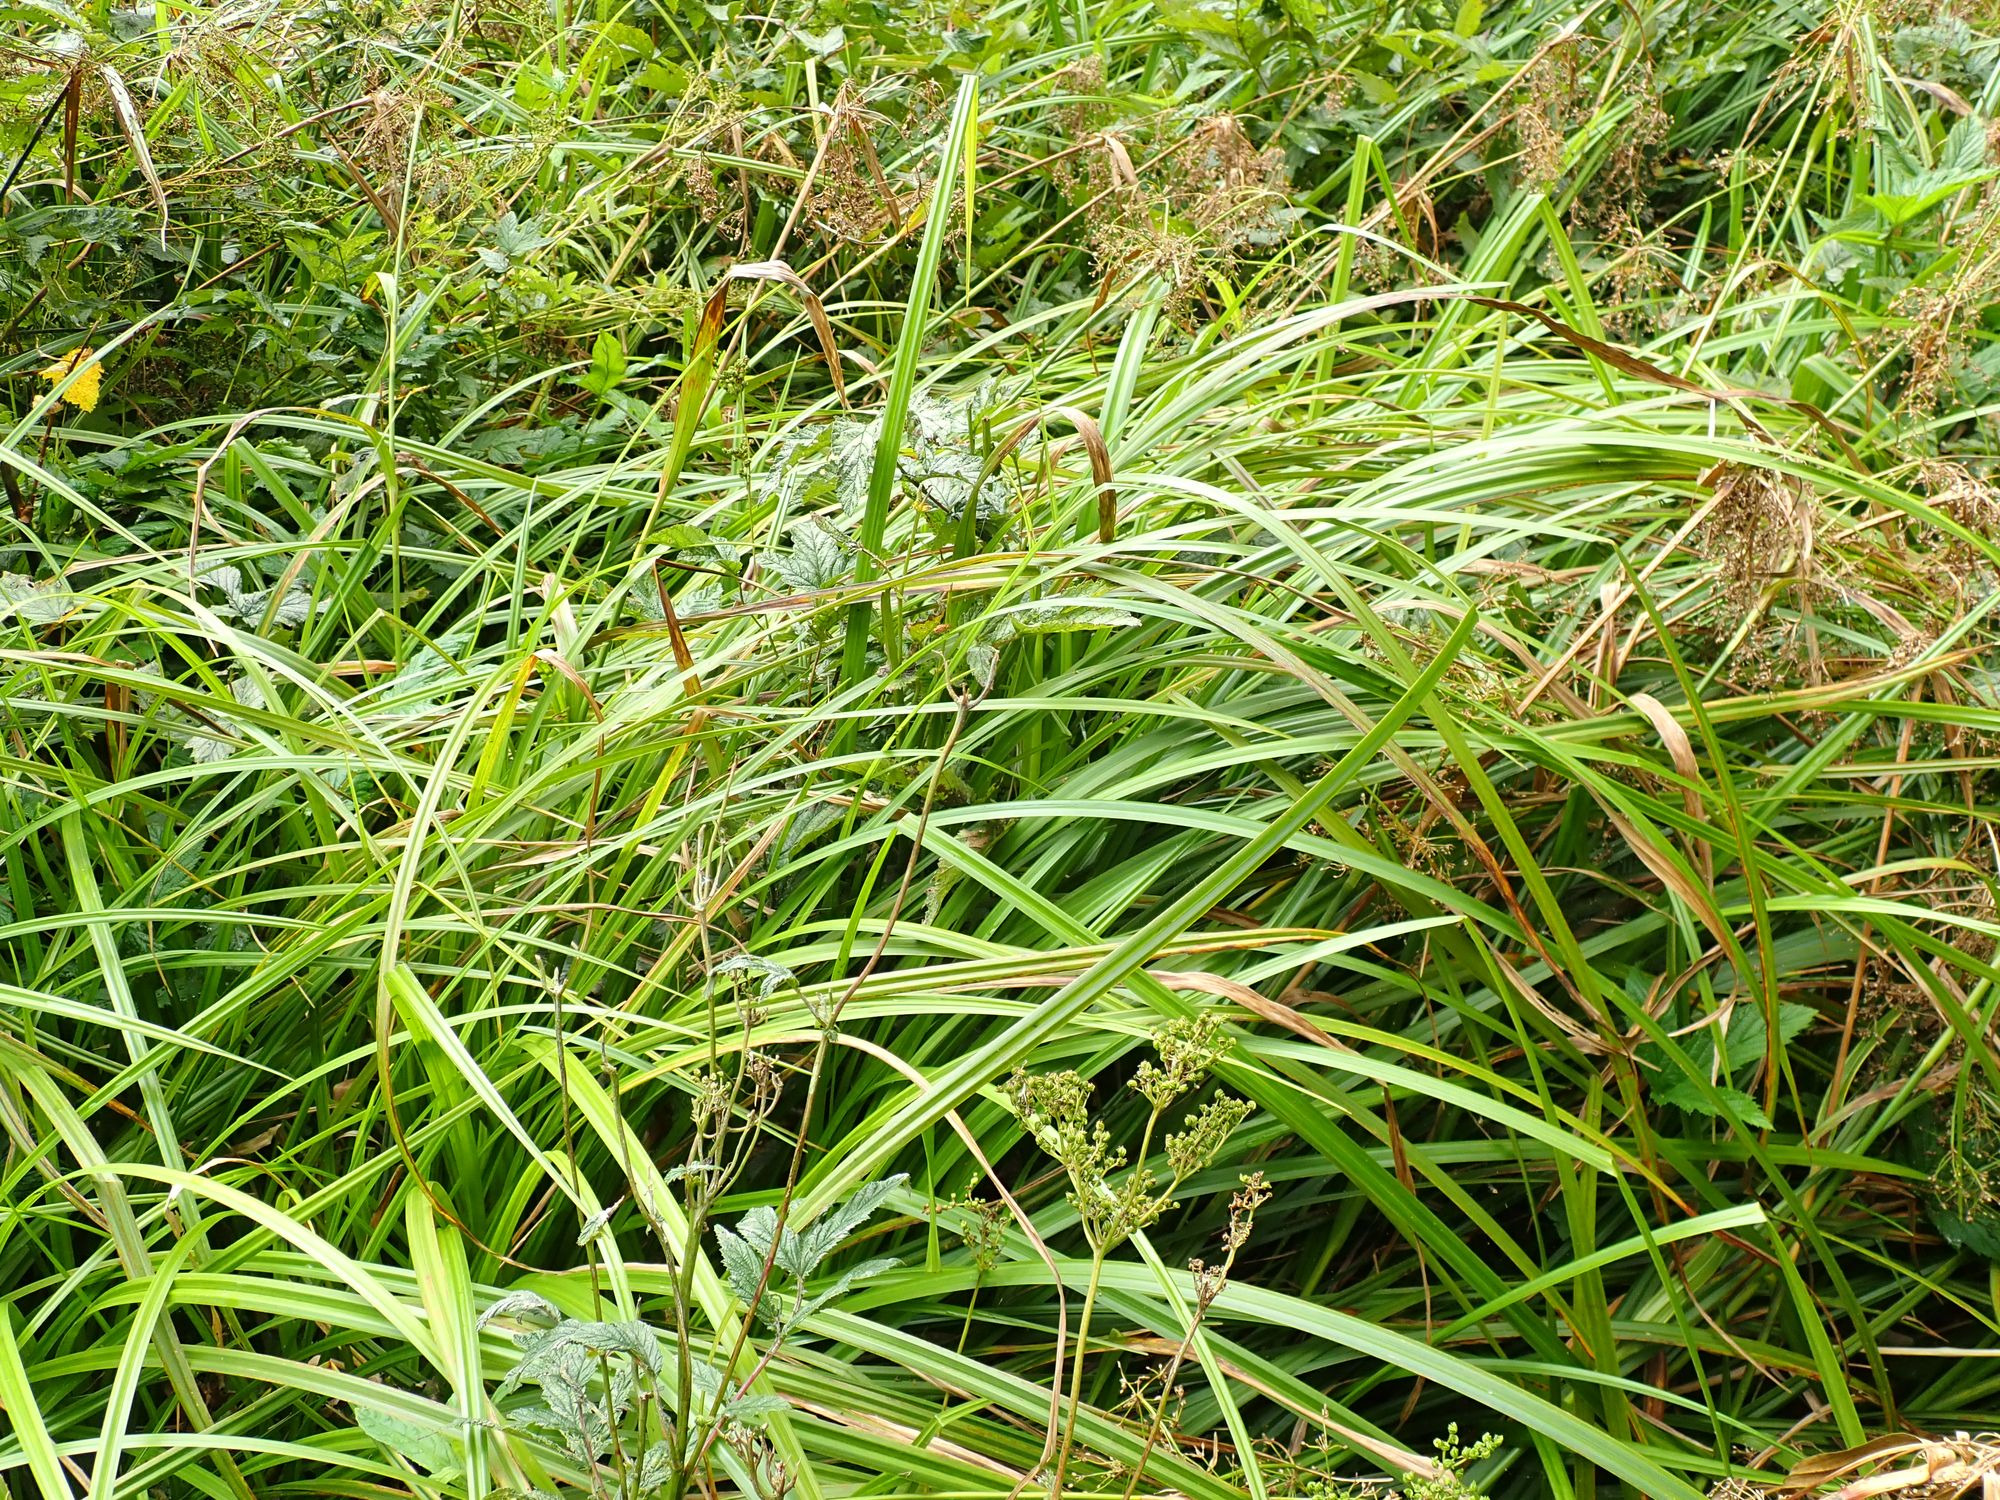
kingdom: Plantae
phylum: Tracheophyta
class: Liliopsida
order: Poales
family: Cyperaceae
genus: Scirpus
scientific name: Scirpus sylvaticus
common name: Skov-kogleaks
